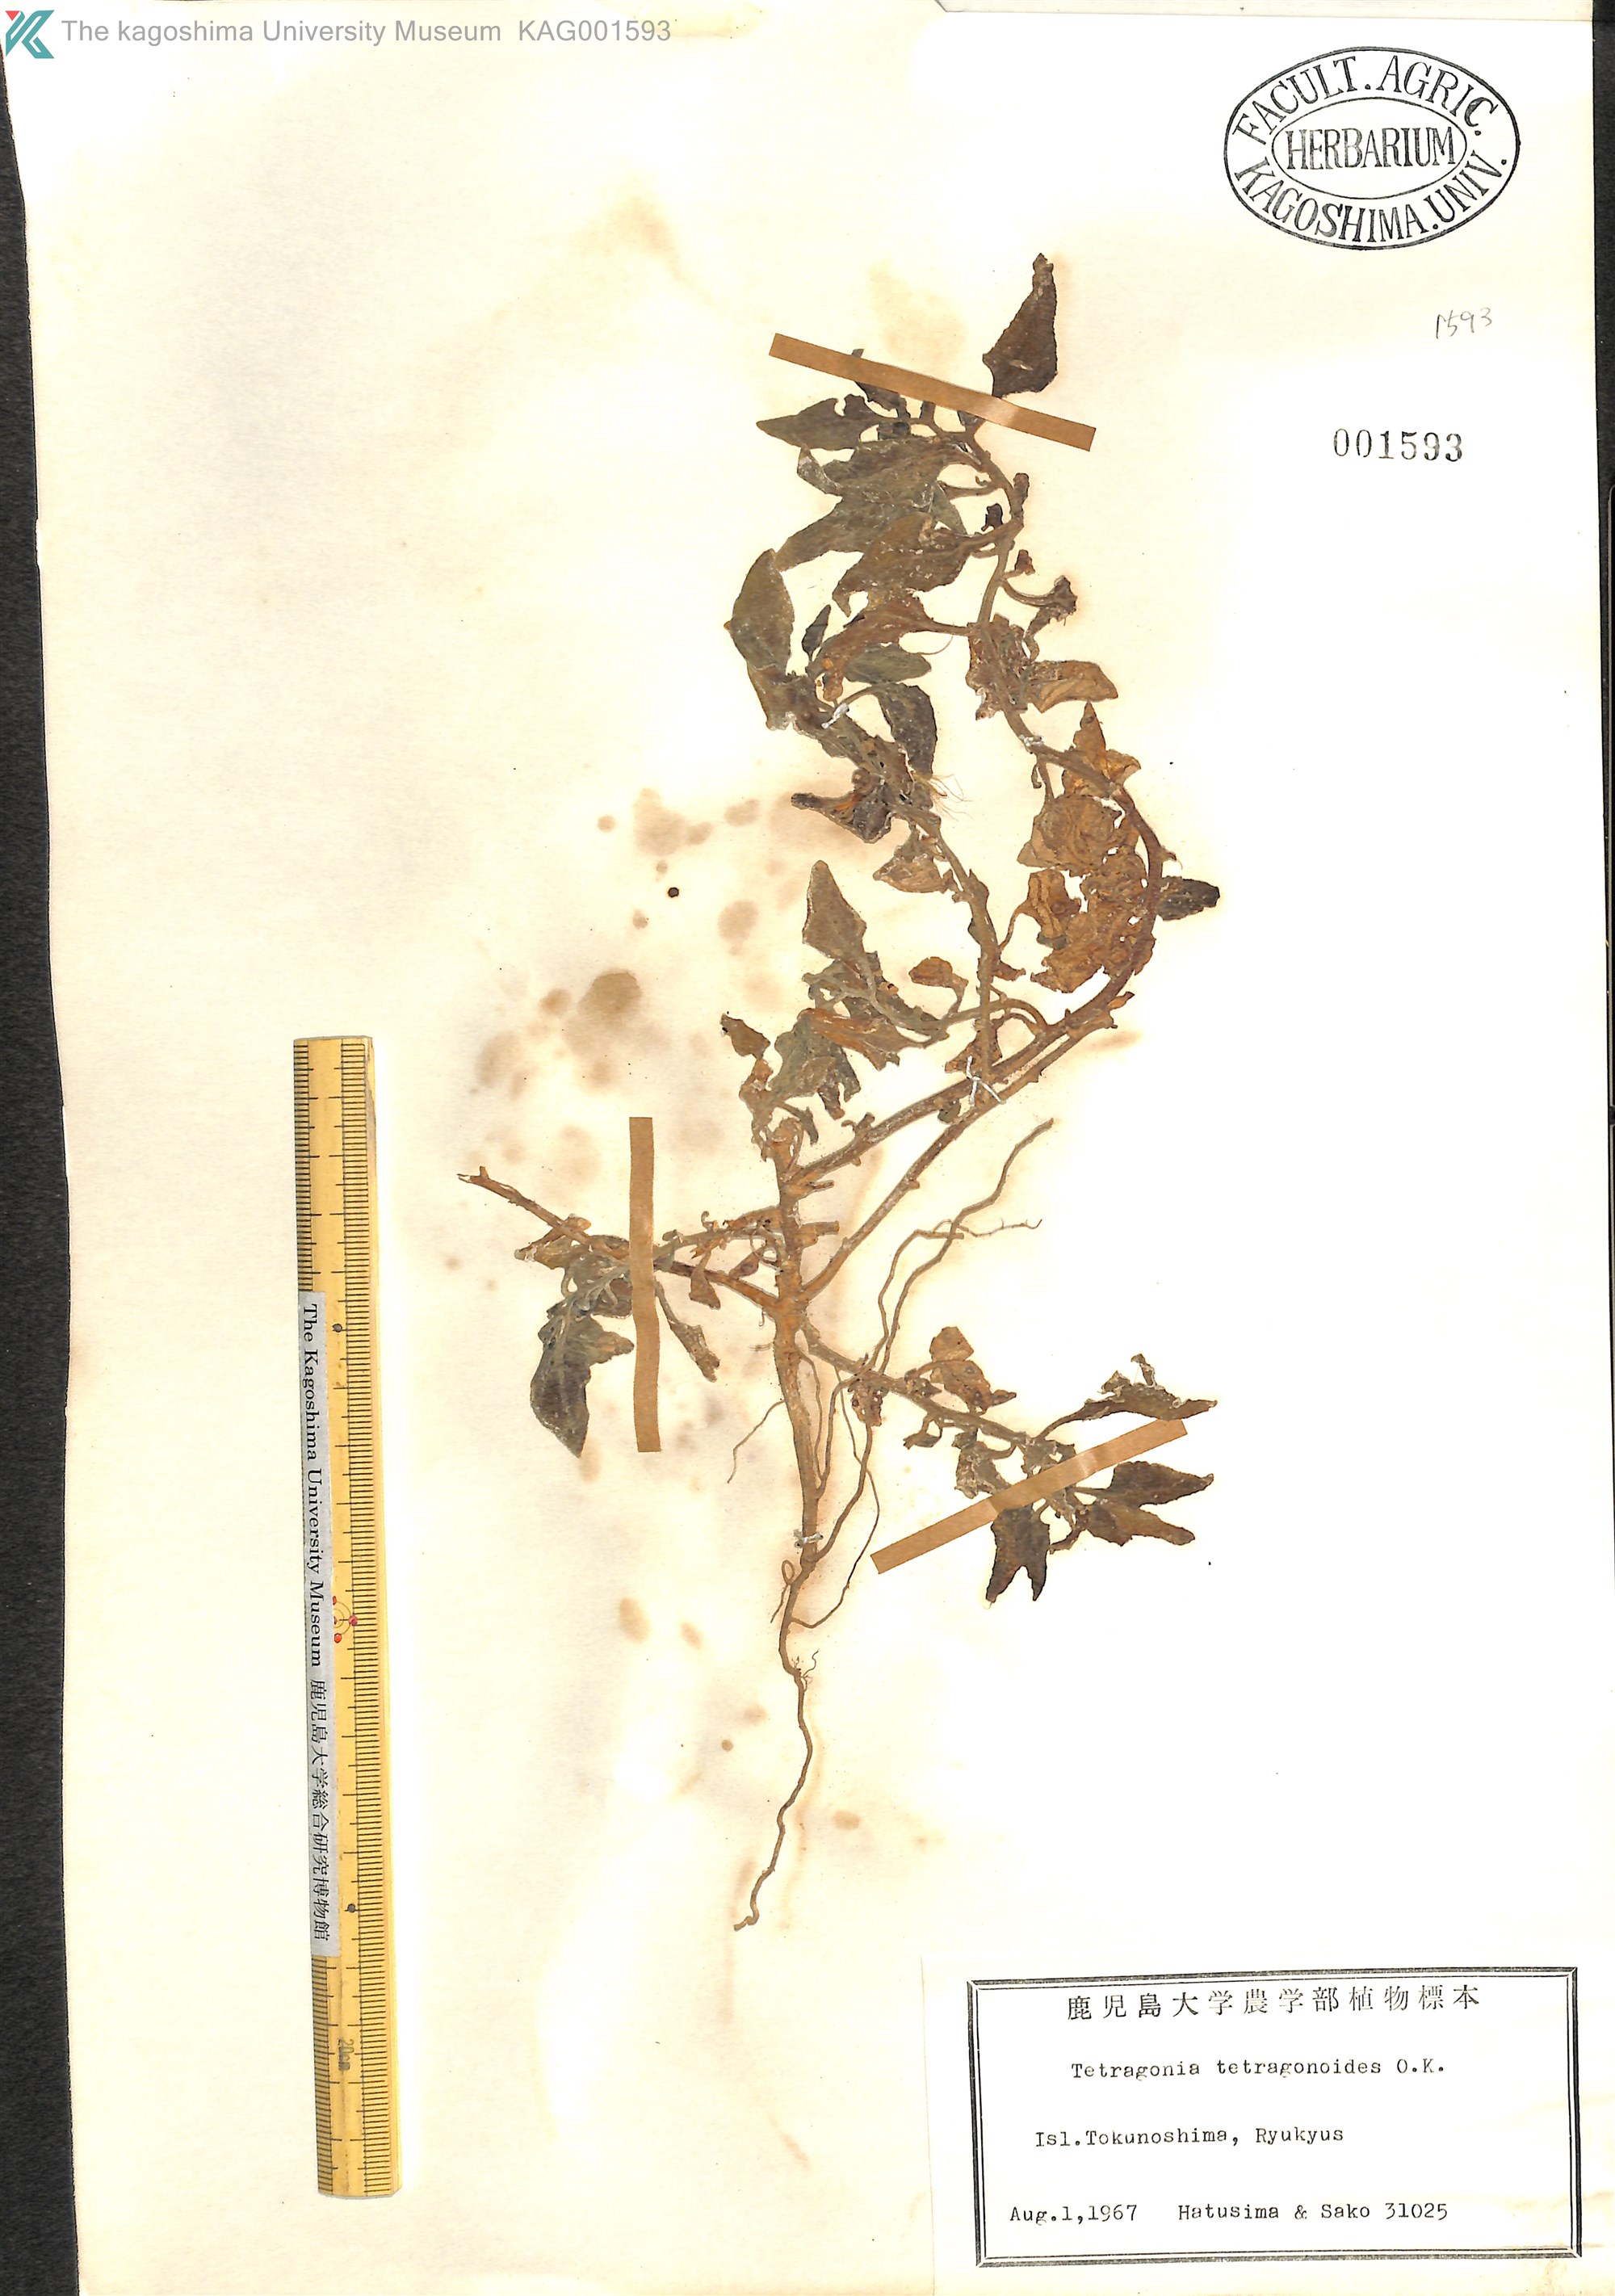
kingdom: Plantae
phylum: Tracheophyta
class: Magnoliopsida
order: Caryophyllales
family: Aizoaceae
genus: Tetragonia
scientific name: Tetragonia tetragonoides
